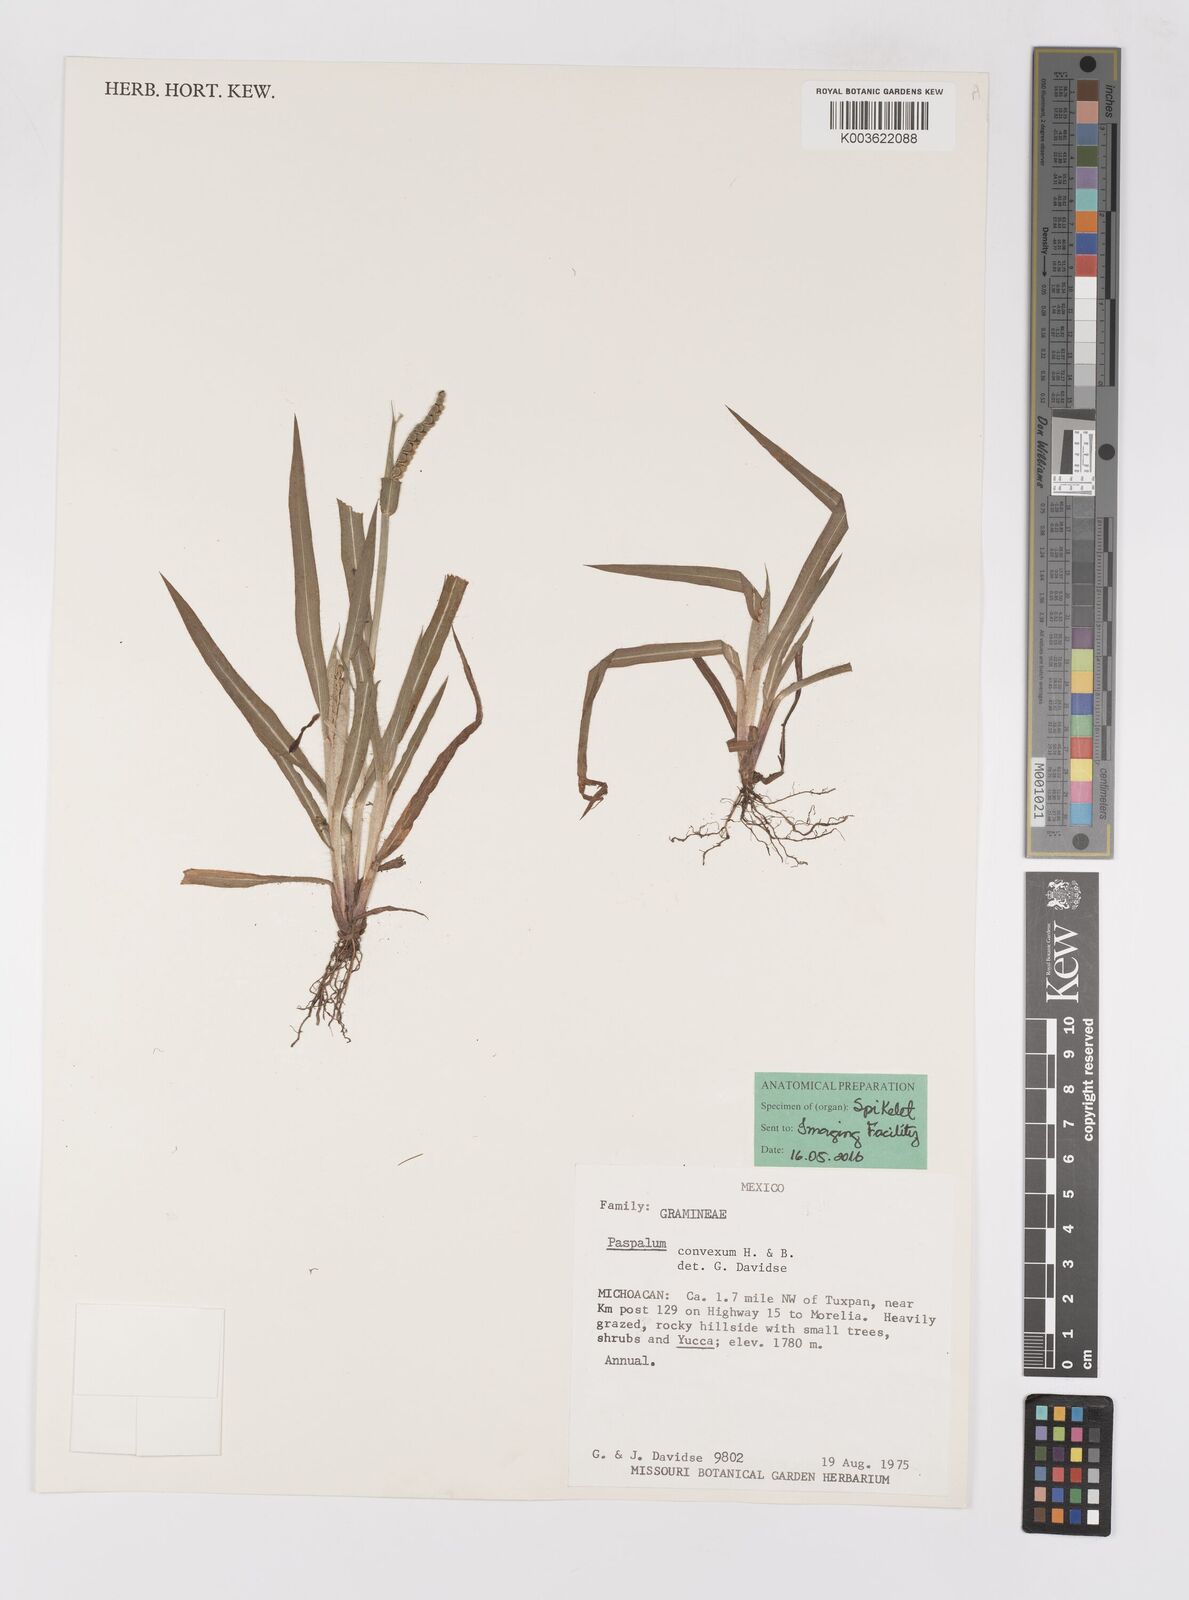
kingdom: Plantae
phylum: Tracheophyta
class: Liliopsida
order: Poales
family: Poaceae
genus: Paspalum
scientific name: Paspalum convexum
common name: Latin american crowngrass
